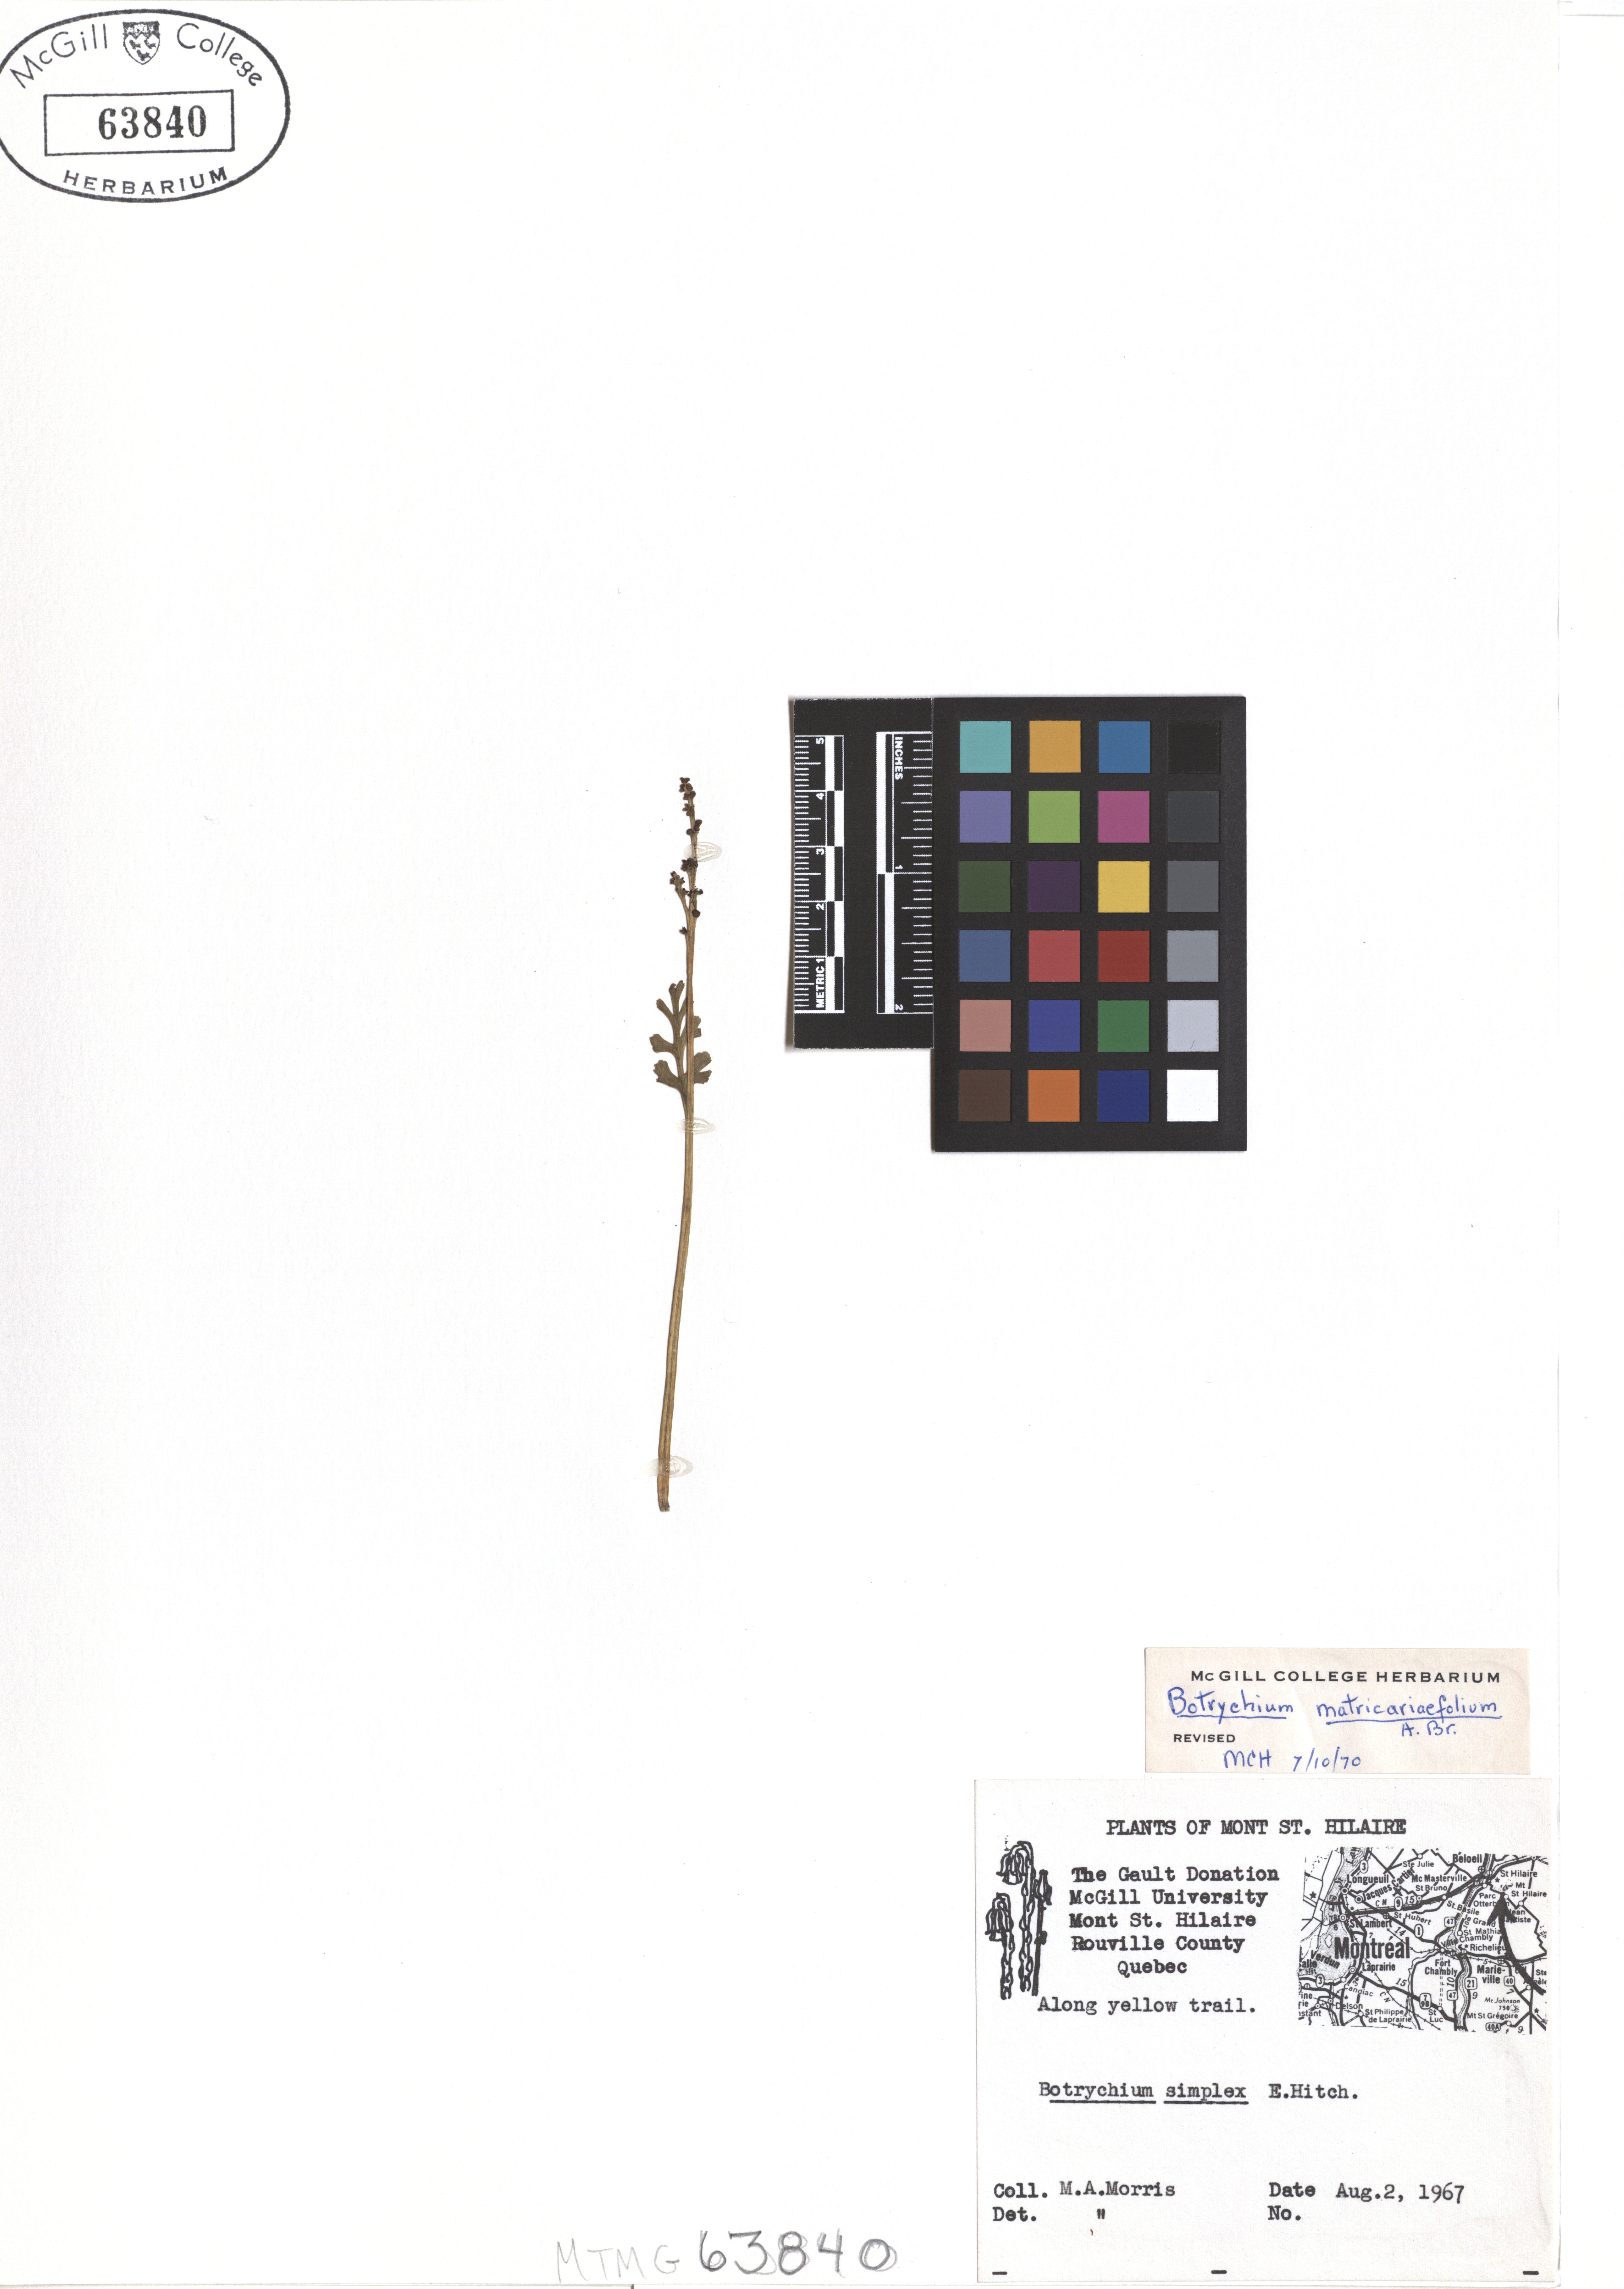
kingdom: Plantae
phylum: Tracheophyta
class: Polypodiopsida
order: Ophioglossales
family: Ophioglossaceae
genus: Botrychium
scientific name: Botrychium matricariifolium
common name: Branched moonwort
